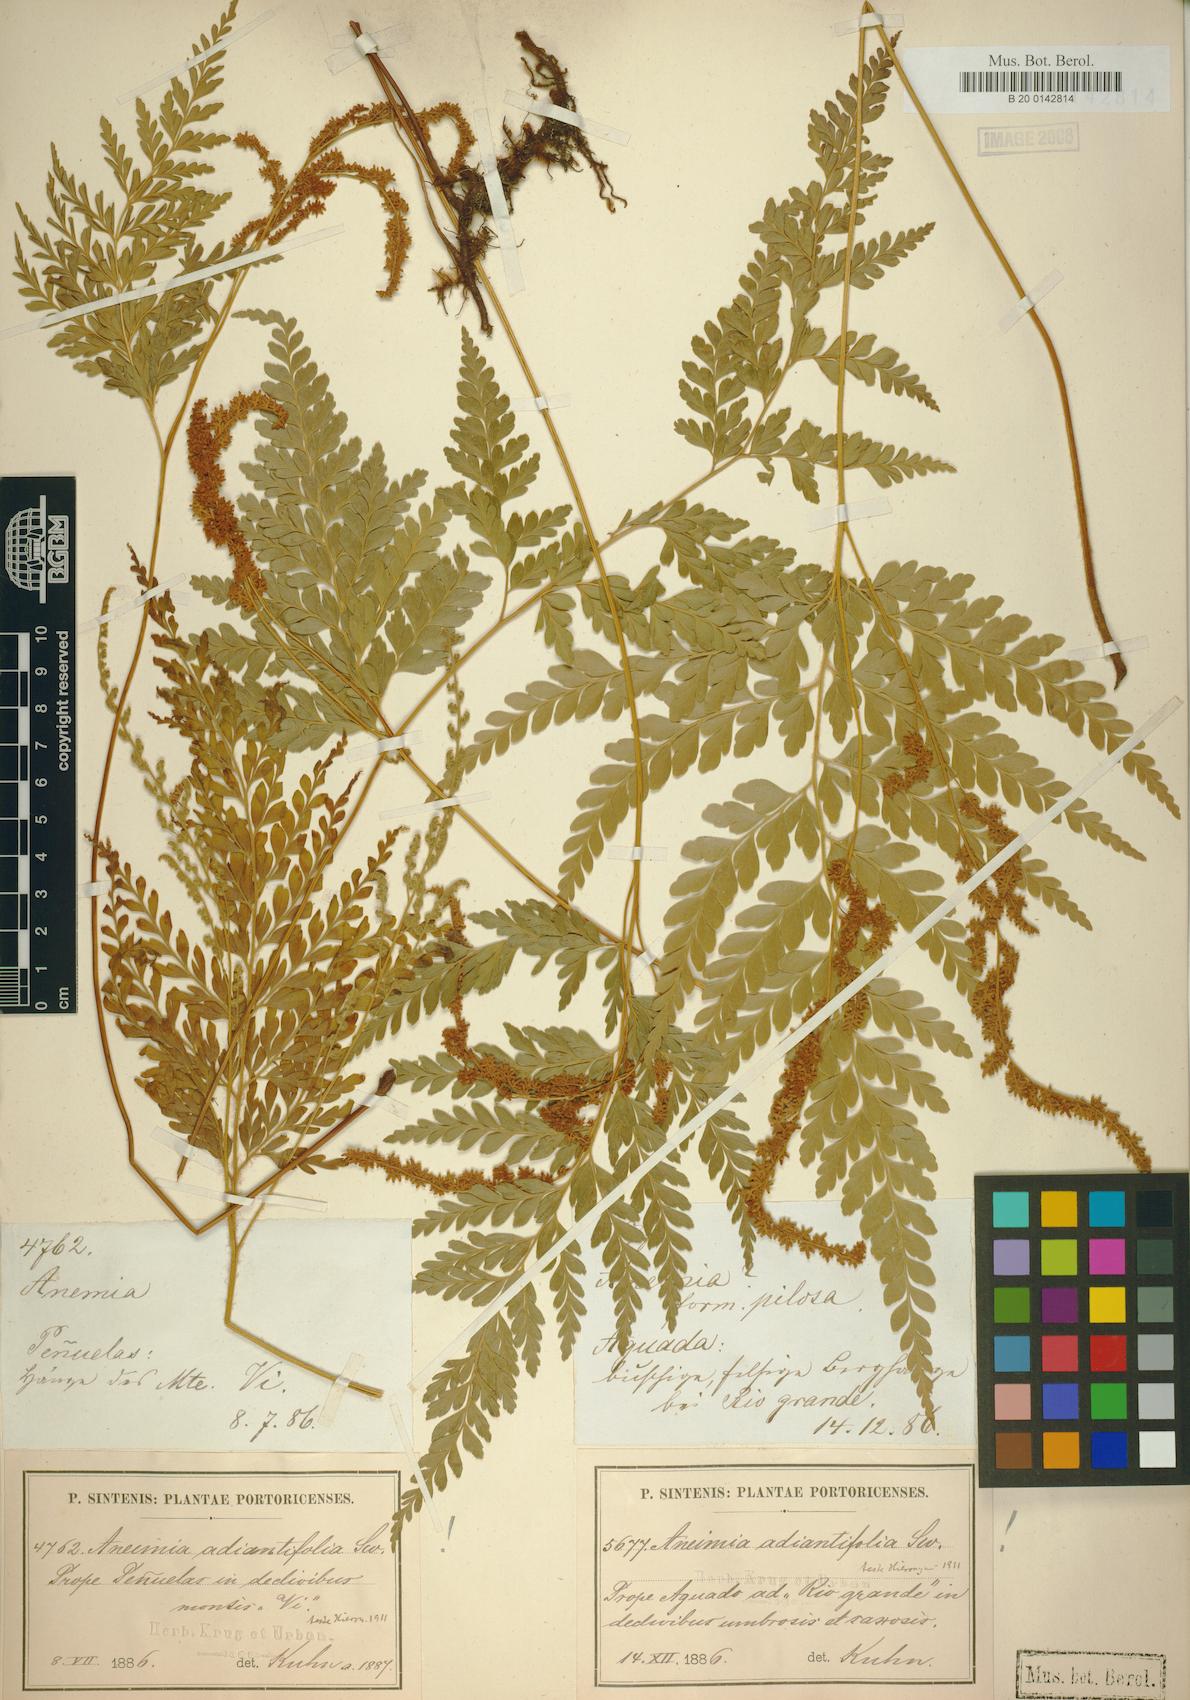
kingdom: Plantae
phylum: Tracheophyta
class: Polypodiopsida
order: Schizaeales
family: Anemiaceae
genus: Anemia
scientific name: Anemia adiantifolia
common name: Pine fern
